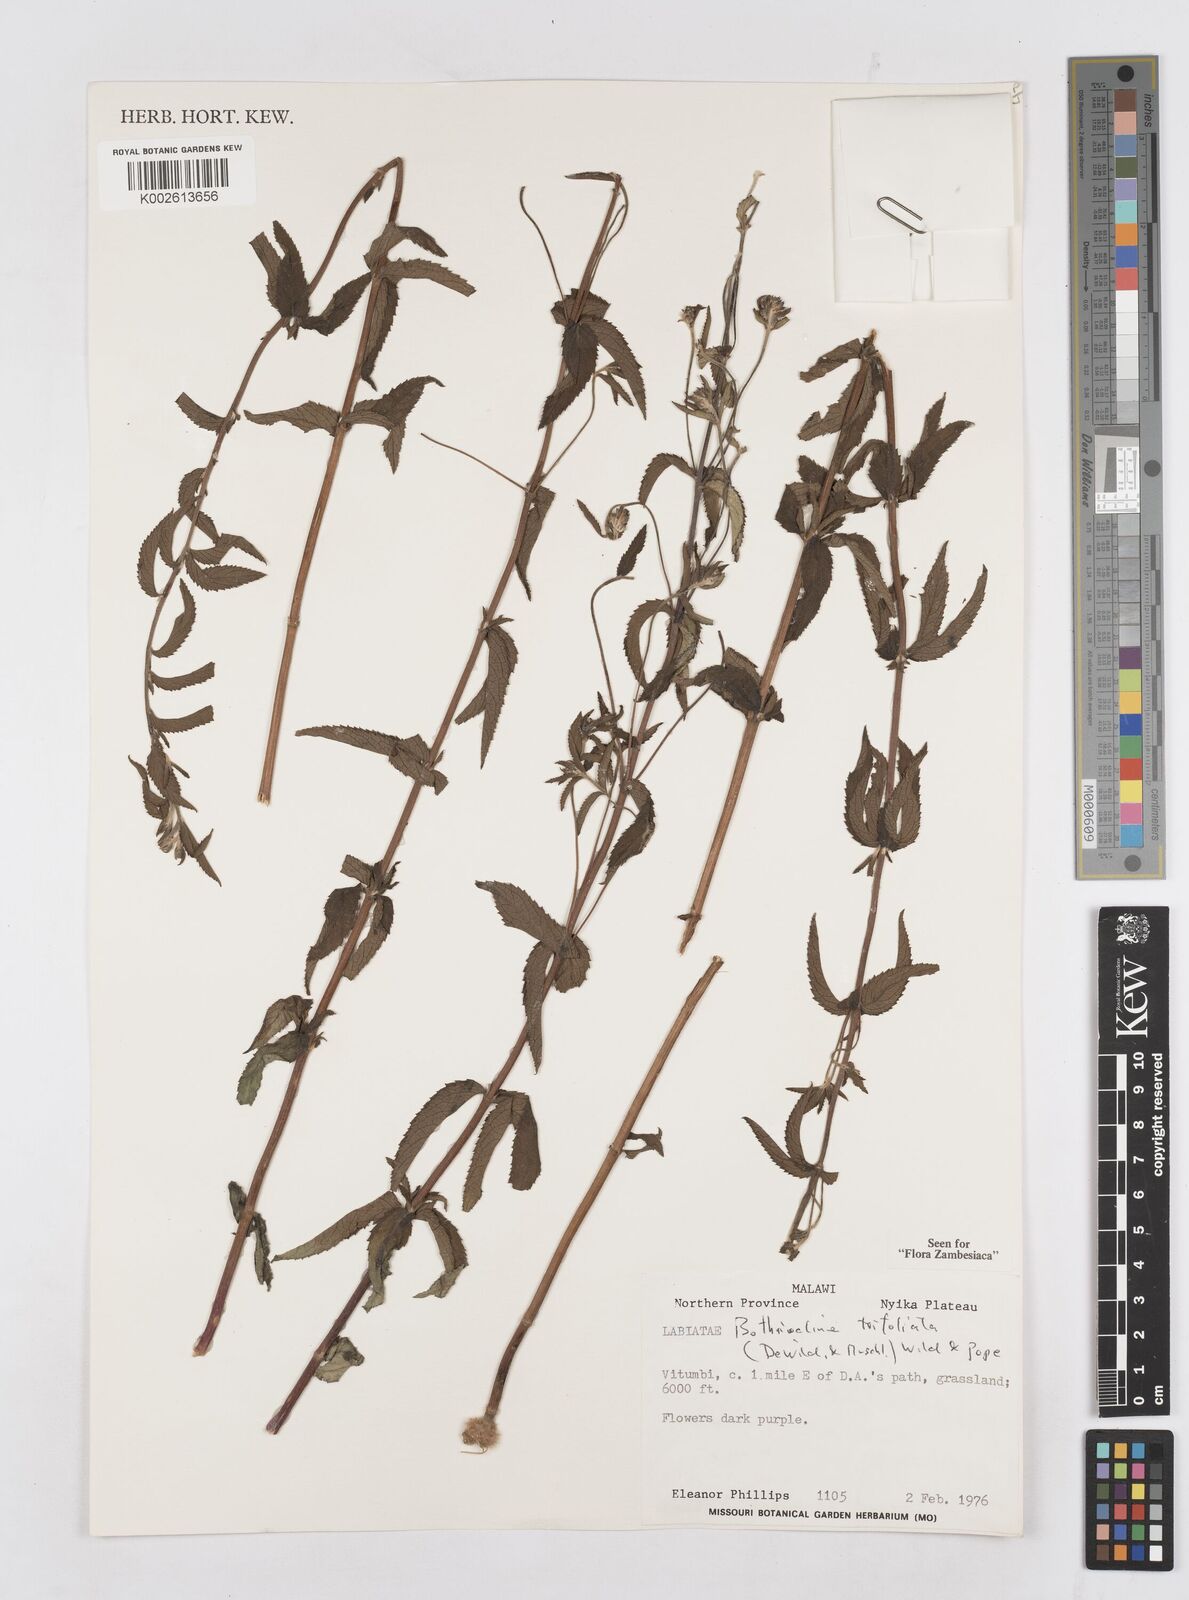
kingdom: Plantae
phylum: Tracheophyta
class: Magnoliopsida
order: Asterales
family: Asteraceae
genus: Bothriocline
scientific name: Bothriocline trifoliata
